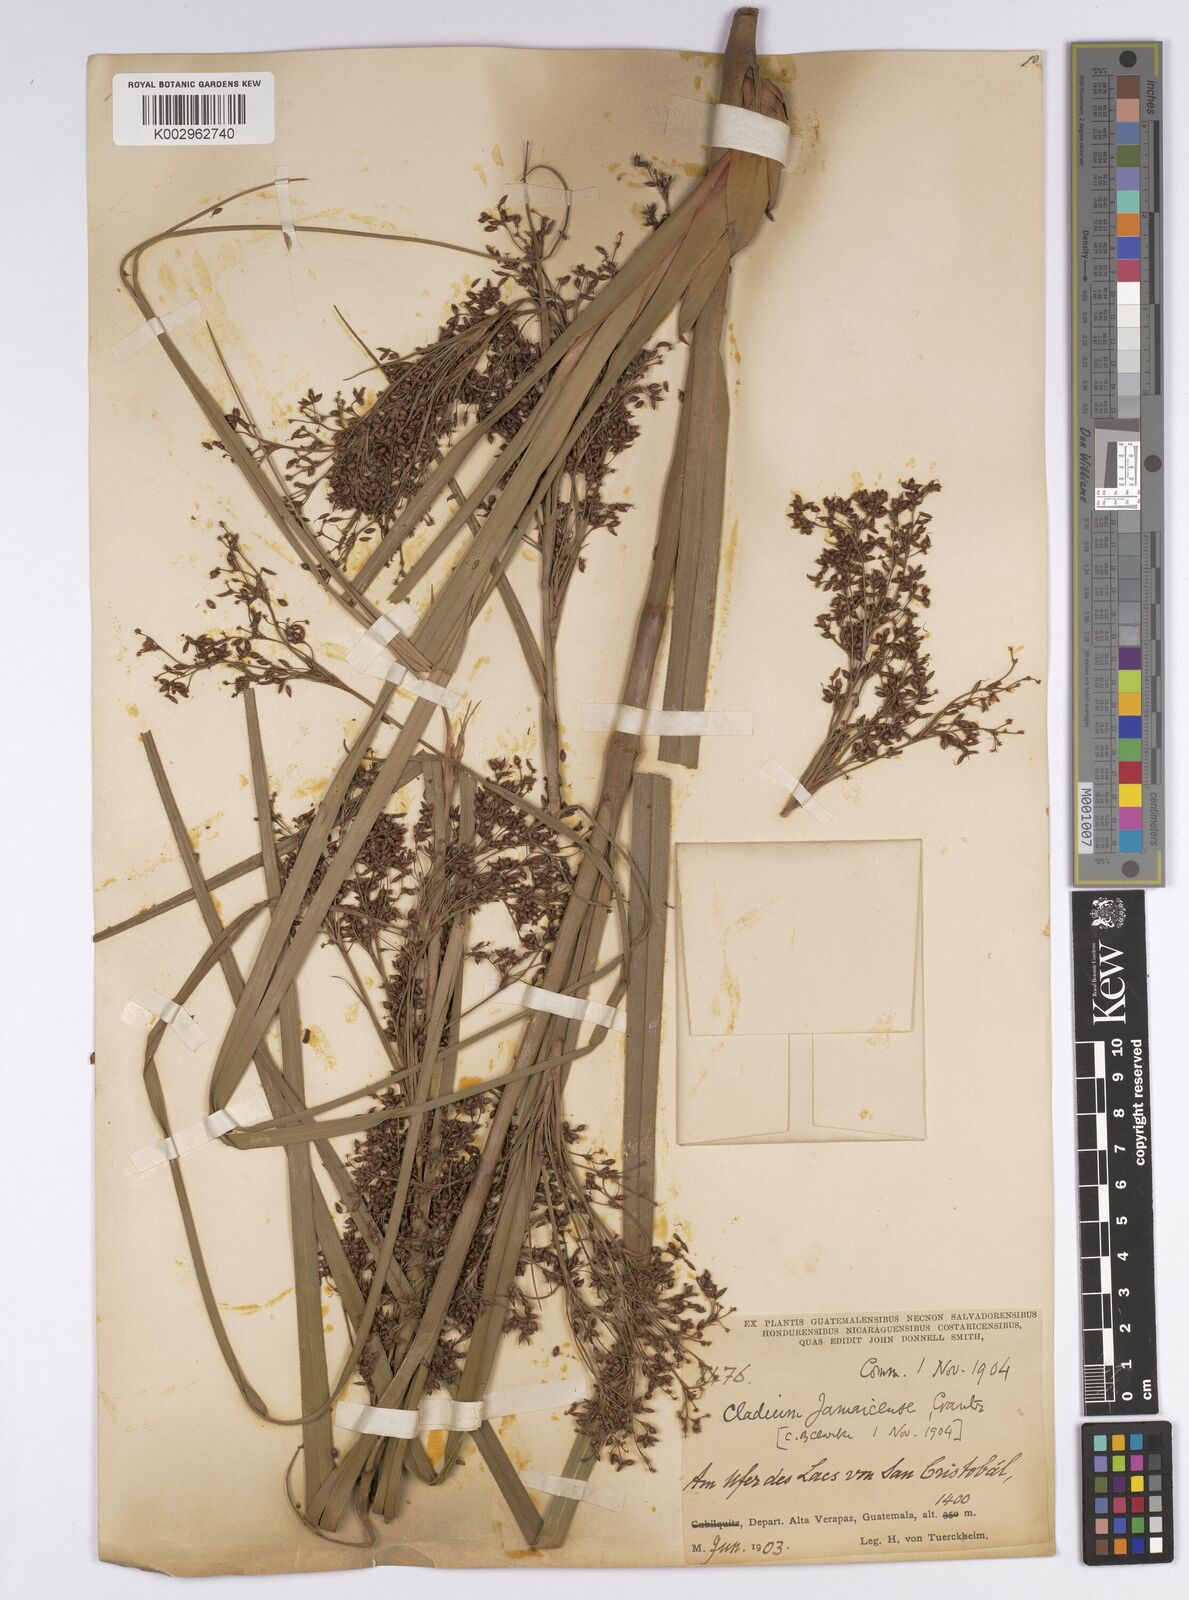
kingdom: Plantae
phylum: Tracheophyta
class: Liliopsida
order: Poales
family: Cyperaceae
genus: Cladium
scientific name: Cladium mariscus
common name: Great fen-sedge
